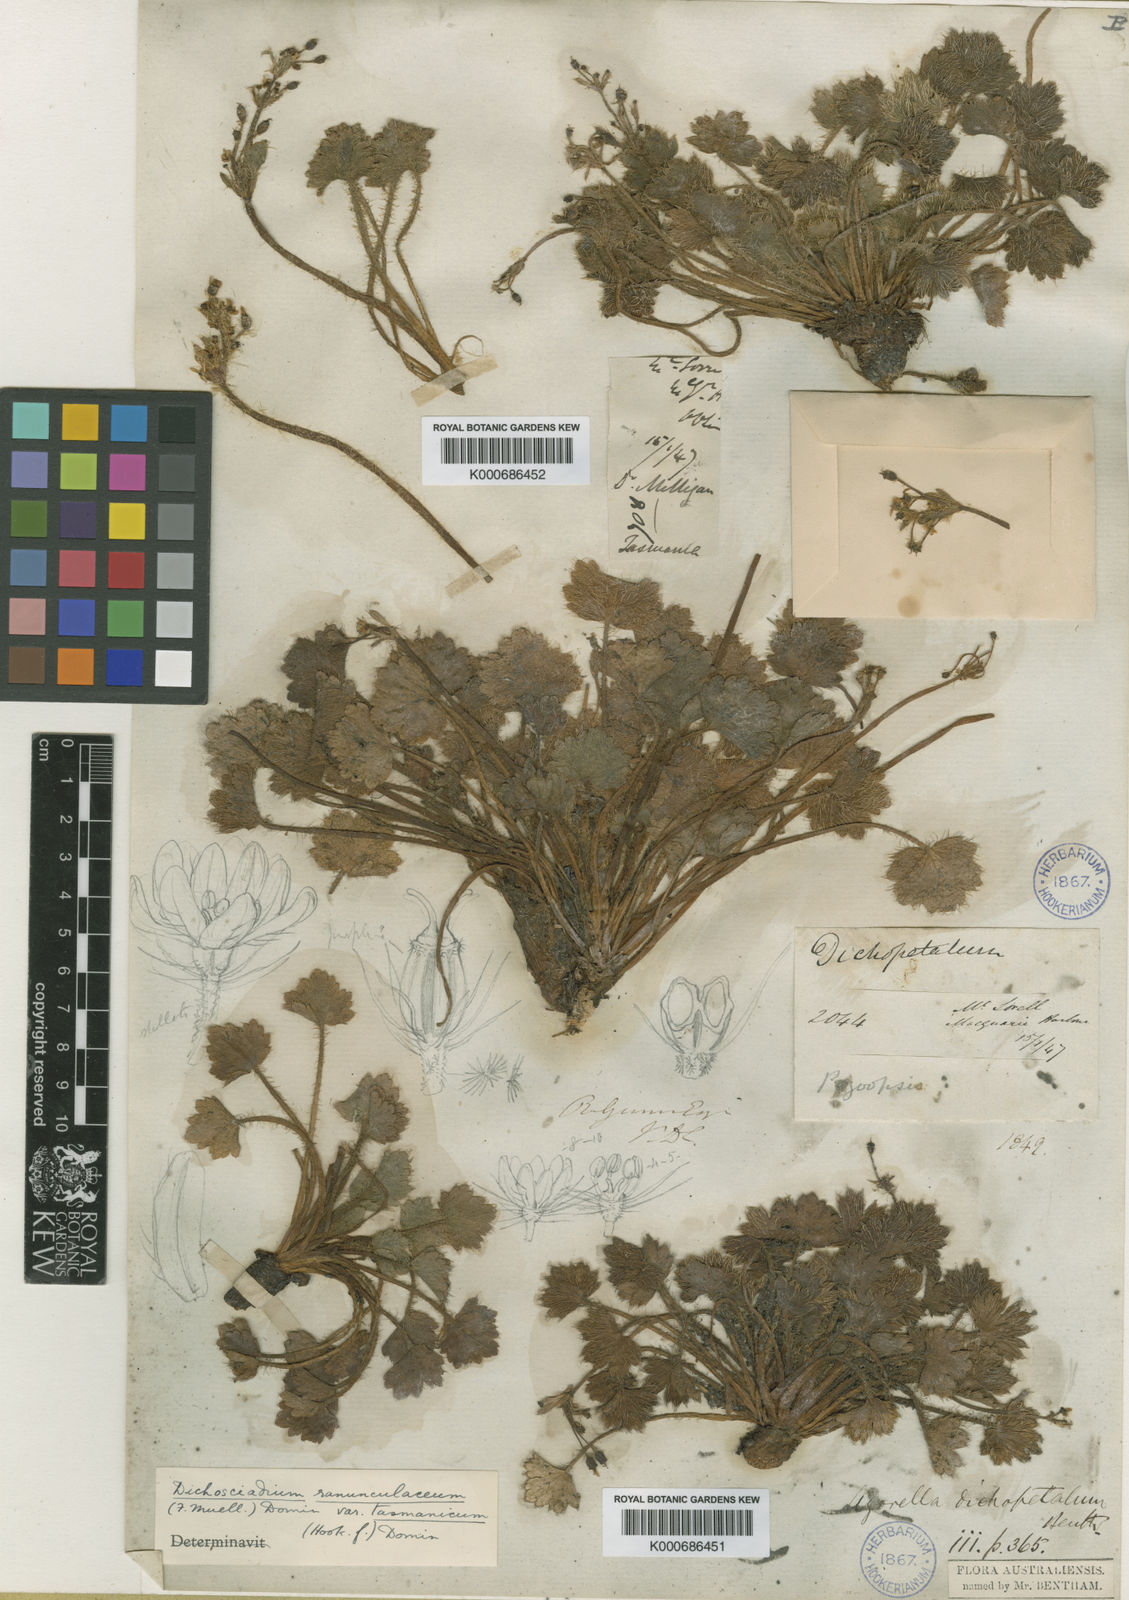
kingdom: Plantae
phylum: Tracheophyta
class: Magnoliopsida
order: Apiales
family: Apiaceae
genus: Dichosciadium
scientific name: Dichosciadium ranunculaceum
